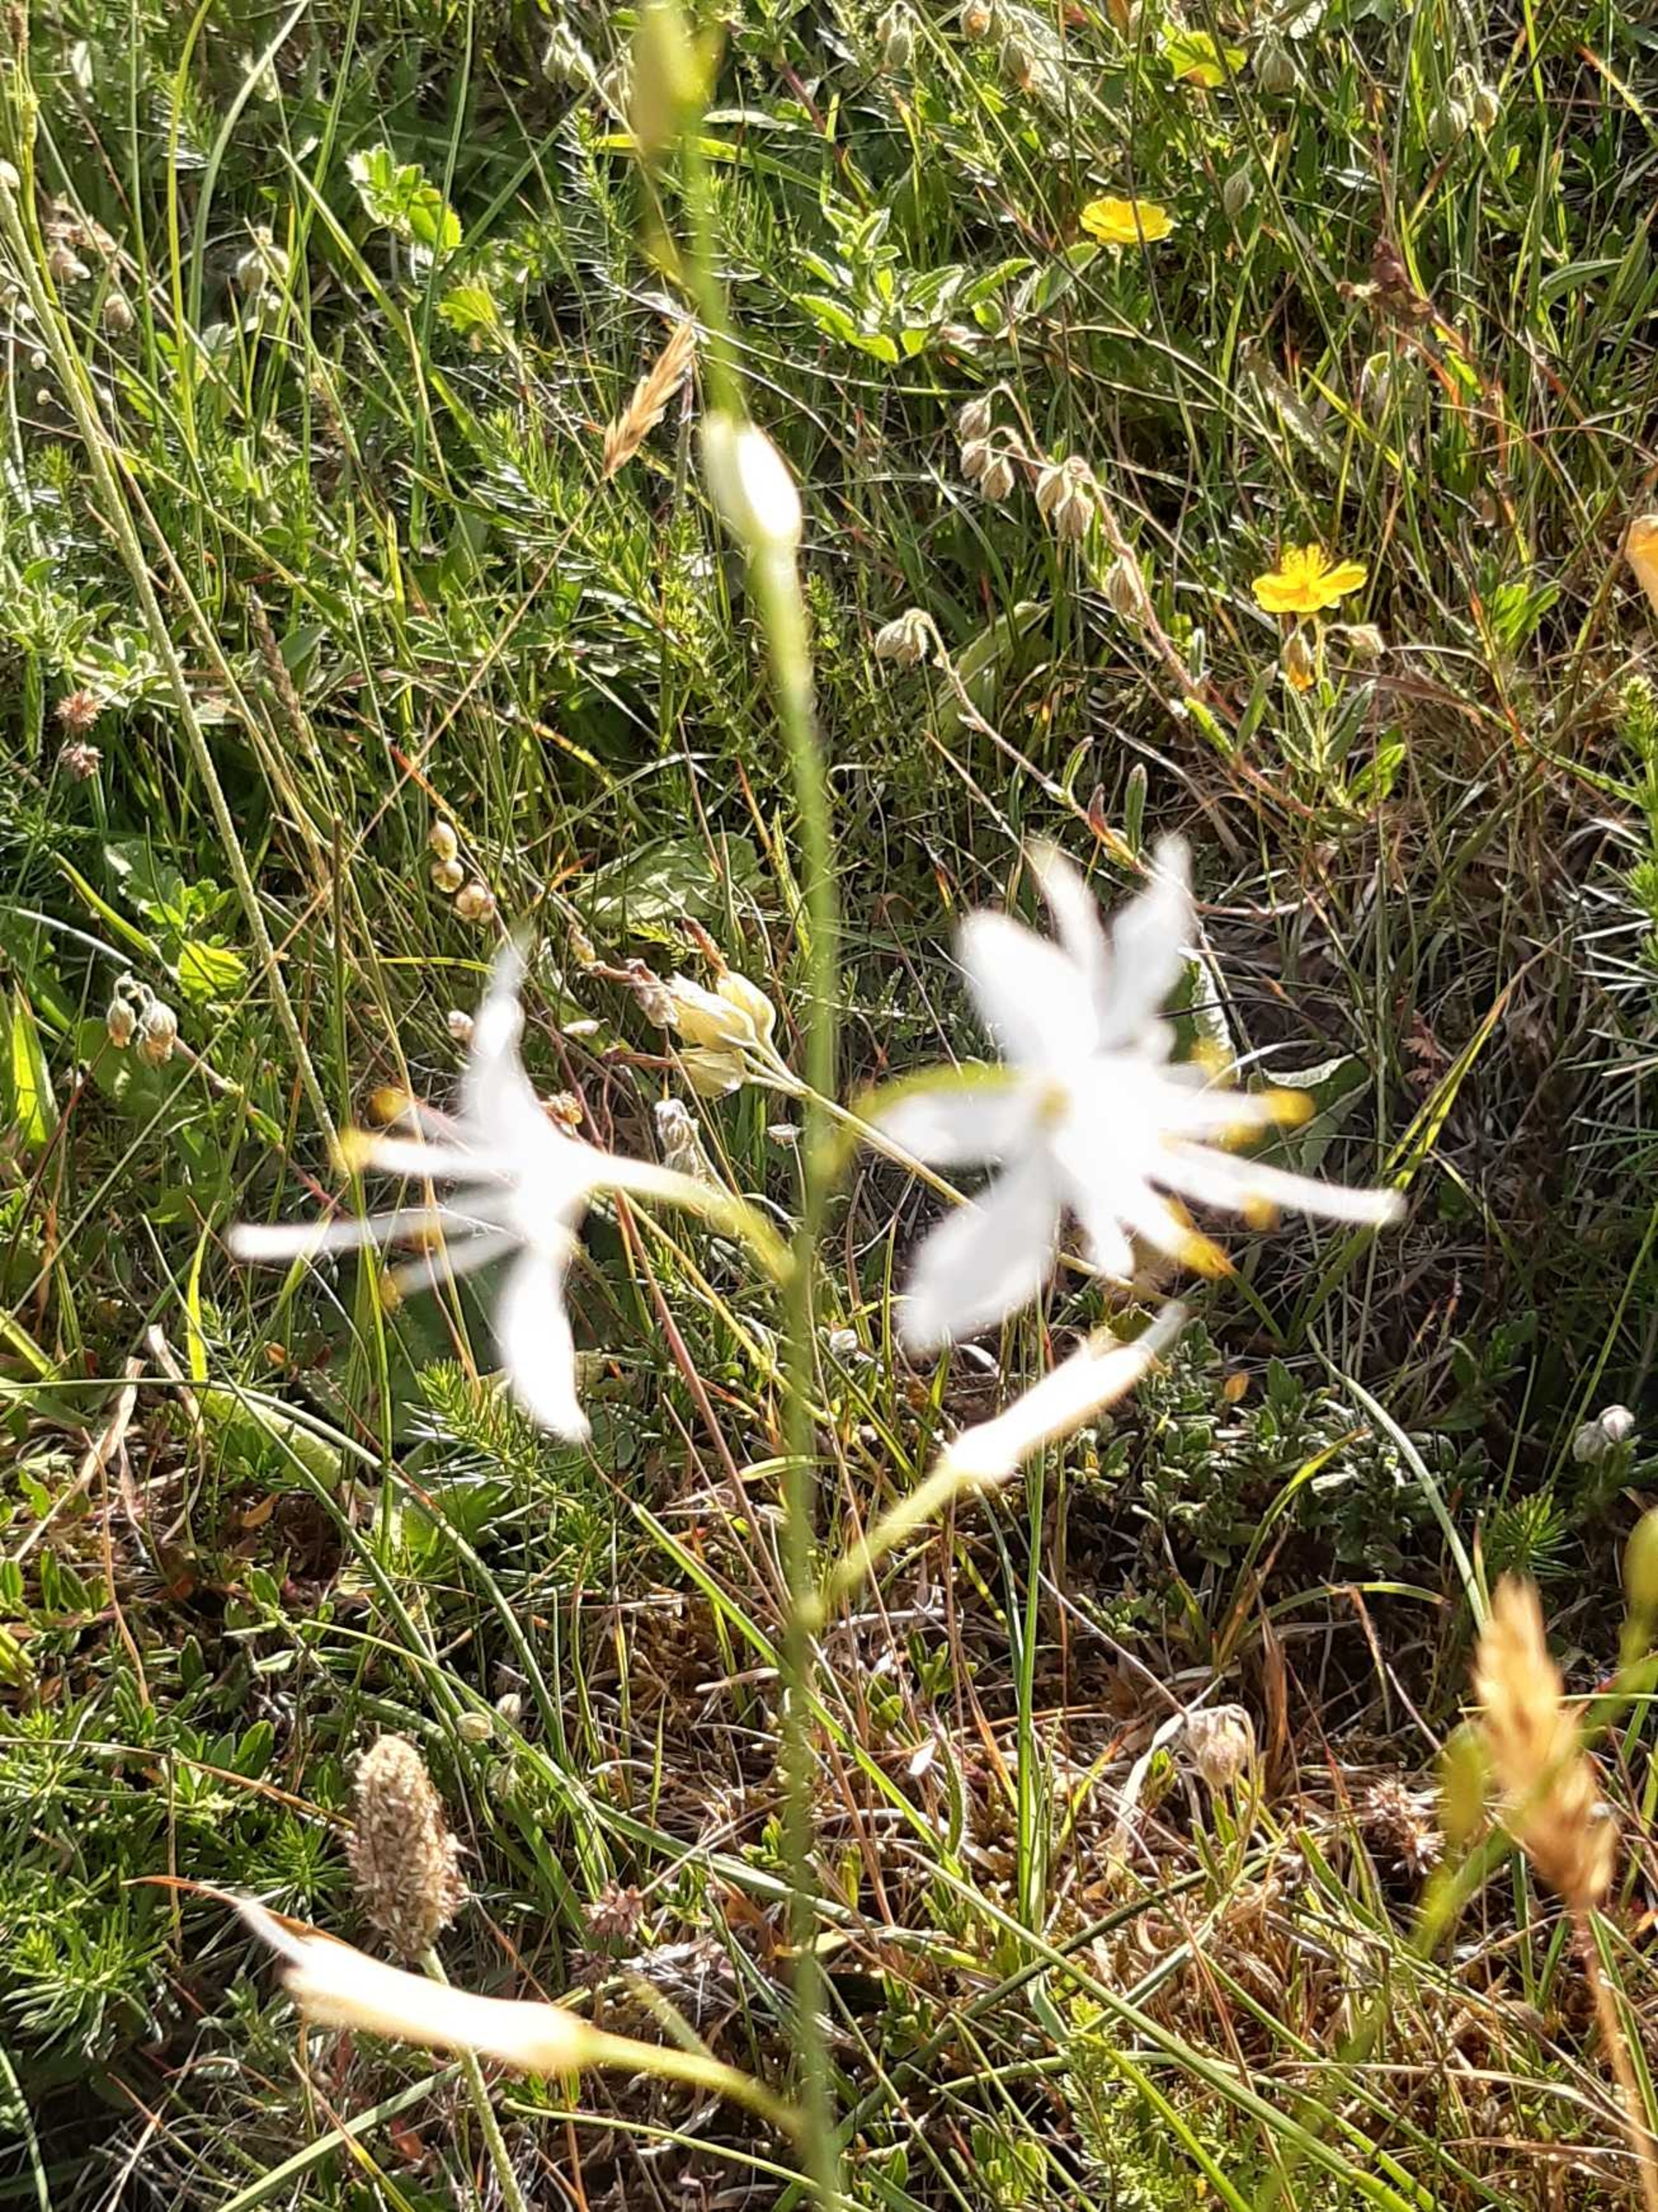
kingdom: Plantae
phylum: Tracheophyta
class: Liliopsida
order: Asparagales
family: Asparagaceae
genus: Anthericum
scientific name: Anthericum ramosum
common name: Grenet edderkopurt
